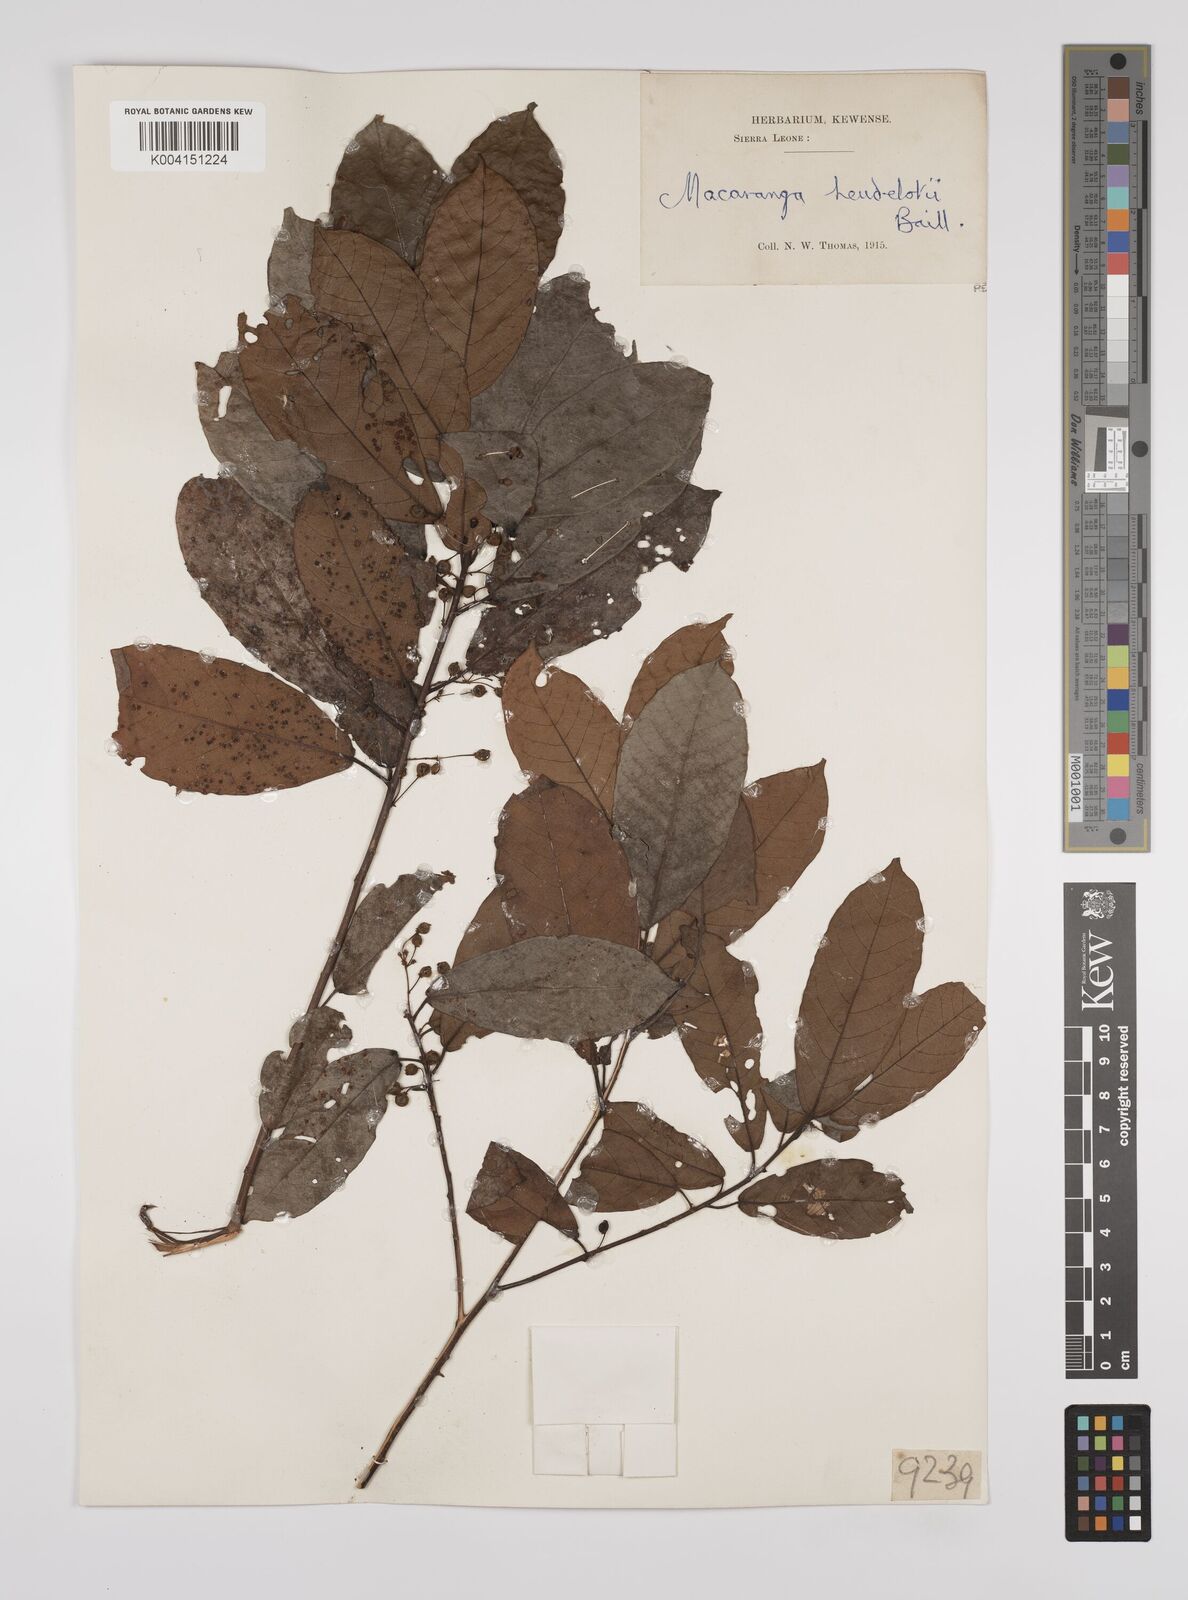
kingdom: Plantae
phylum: Tracheophyta
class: Magnoliopsida
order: Malpighiales
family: Euphorbiaceae
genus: Macaranga
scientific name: Macaranga heudelotii
